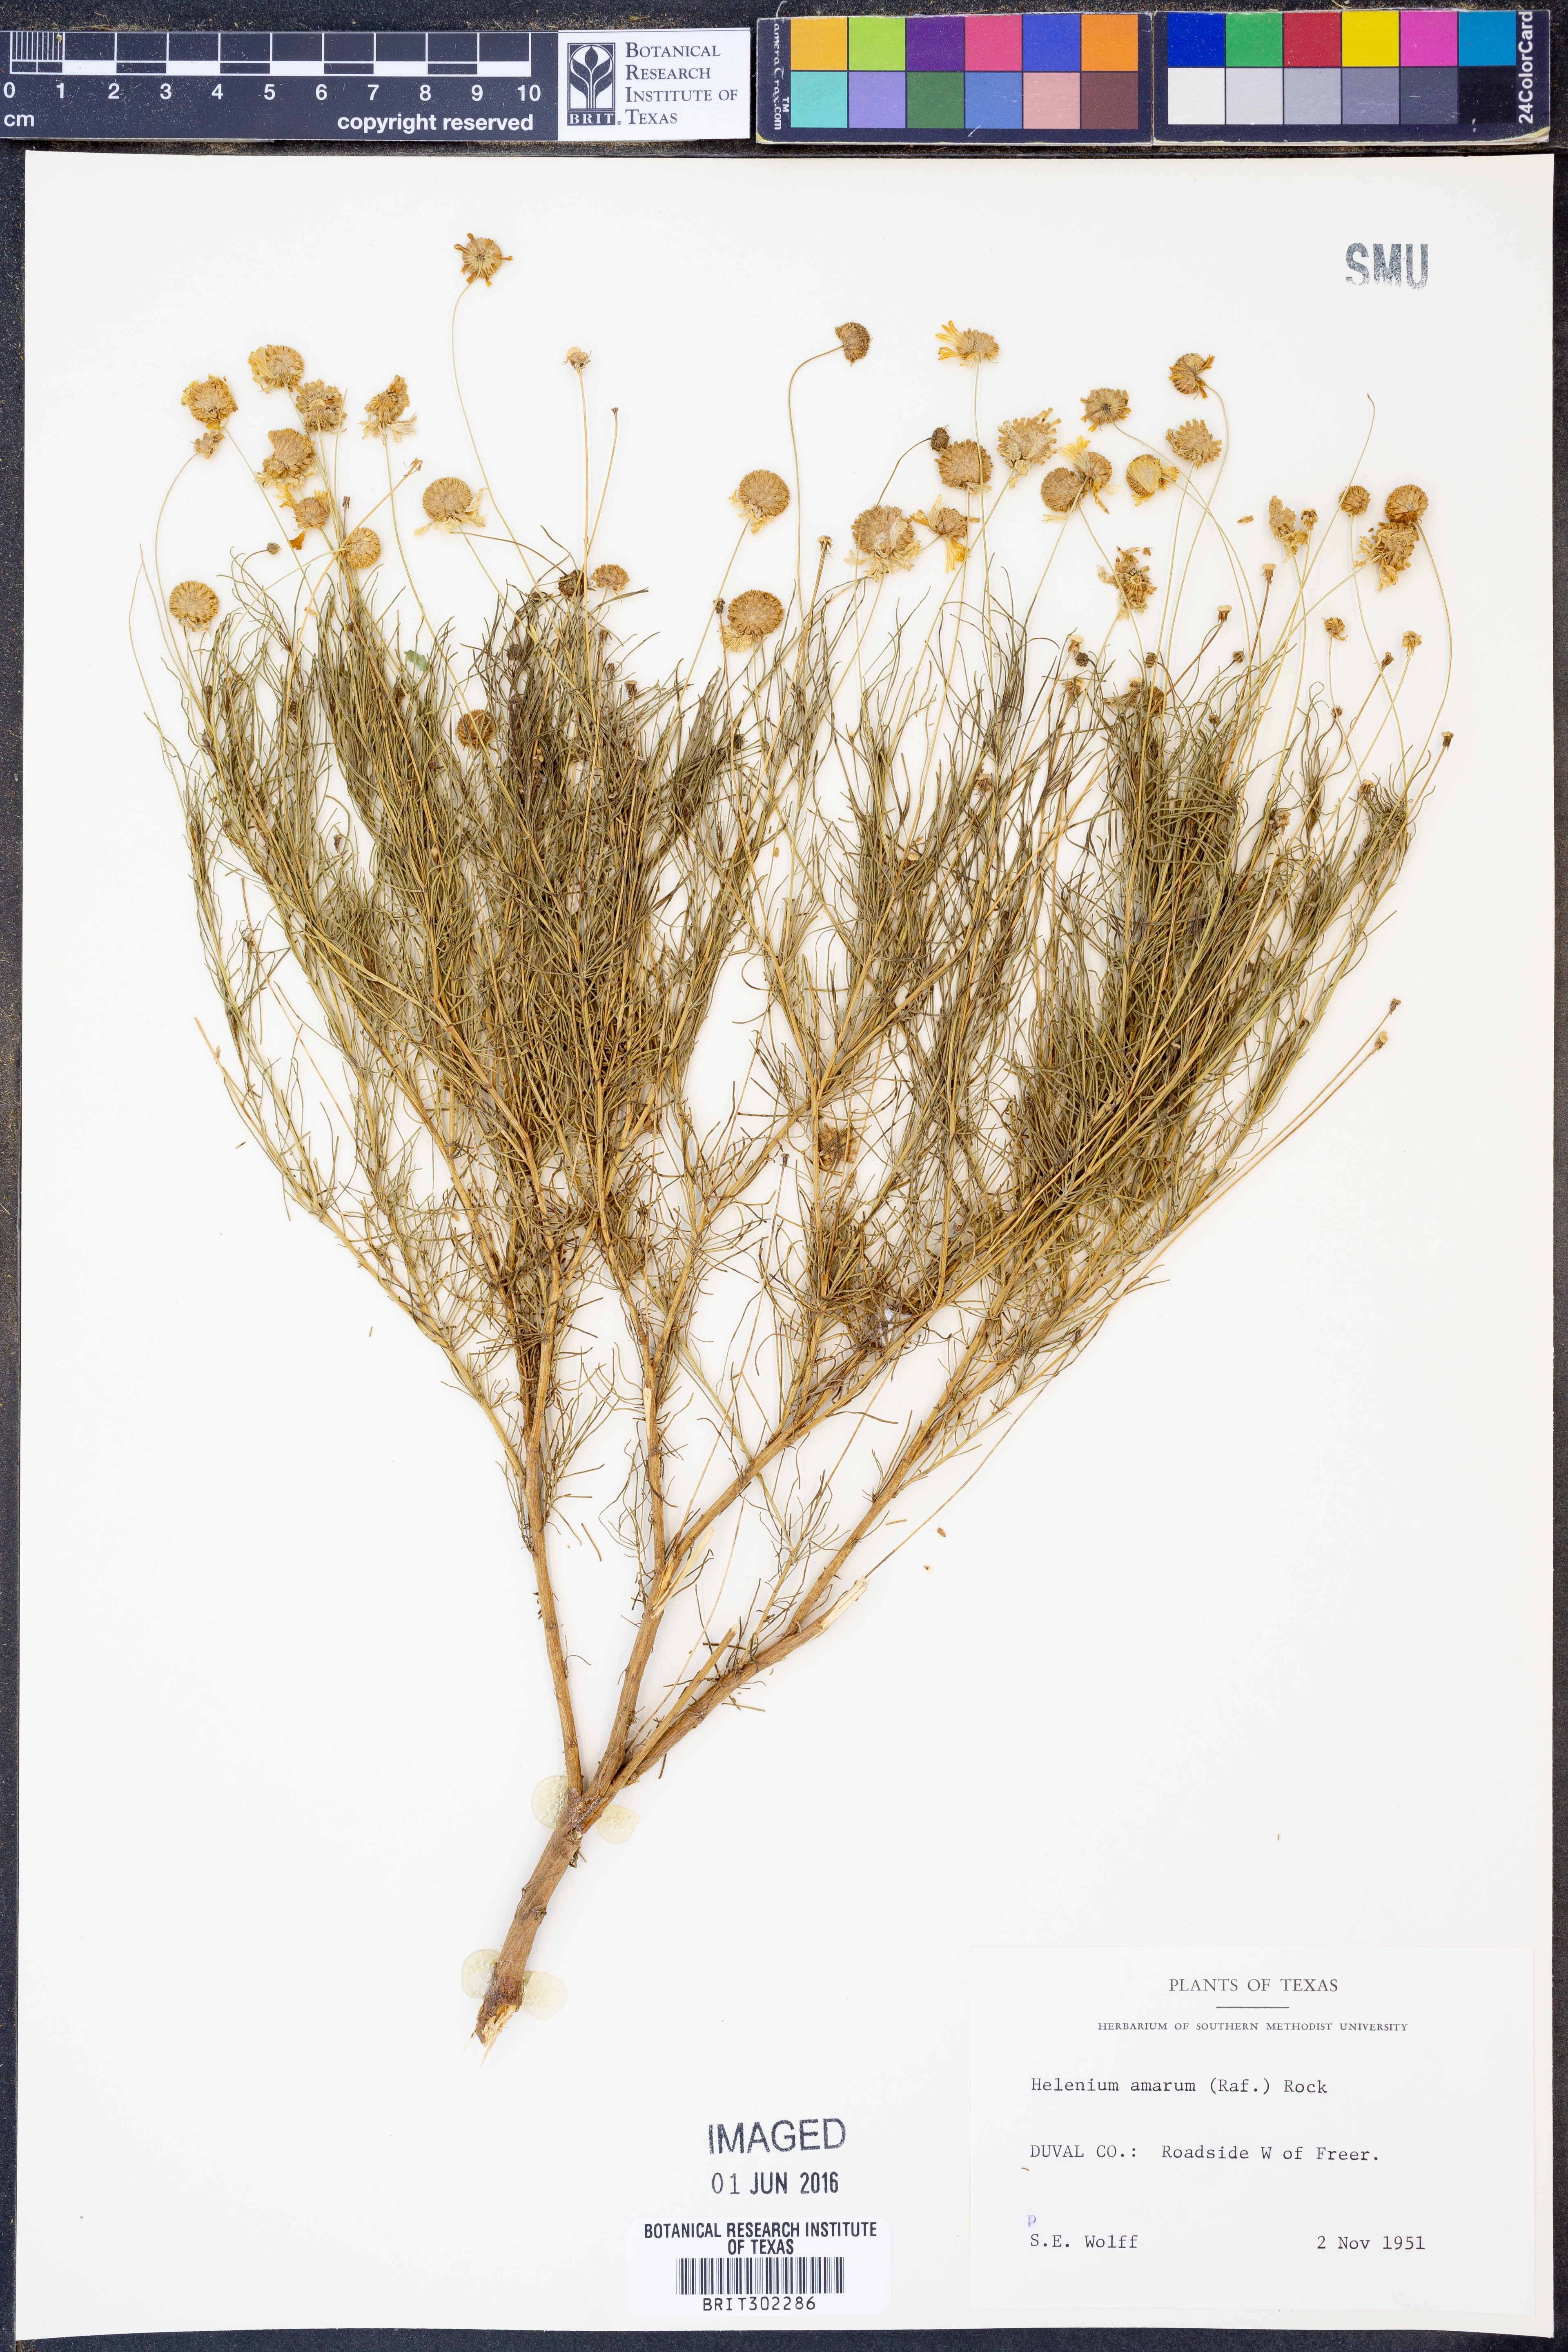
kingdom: Plantae
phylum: Tracheophyta
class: Magnoliopsida
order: Asterales
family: Asteraceae
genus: Helenium
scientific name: Helenium amarum
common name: Bitter sneezeweed
